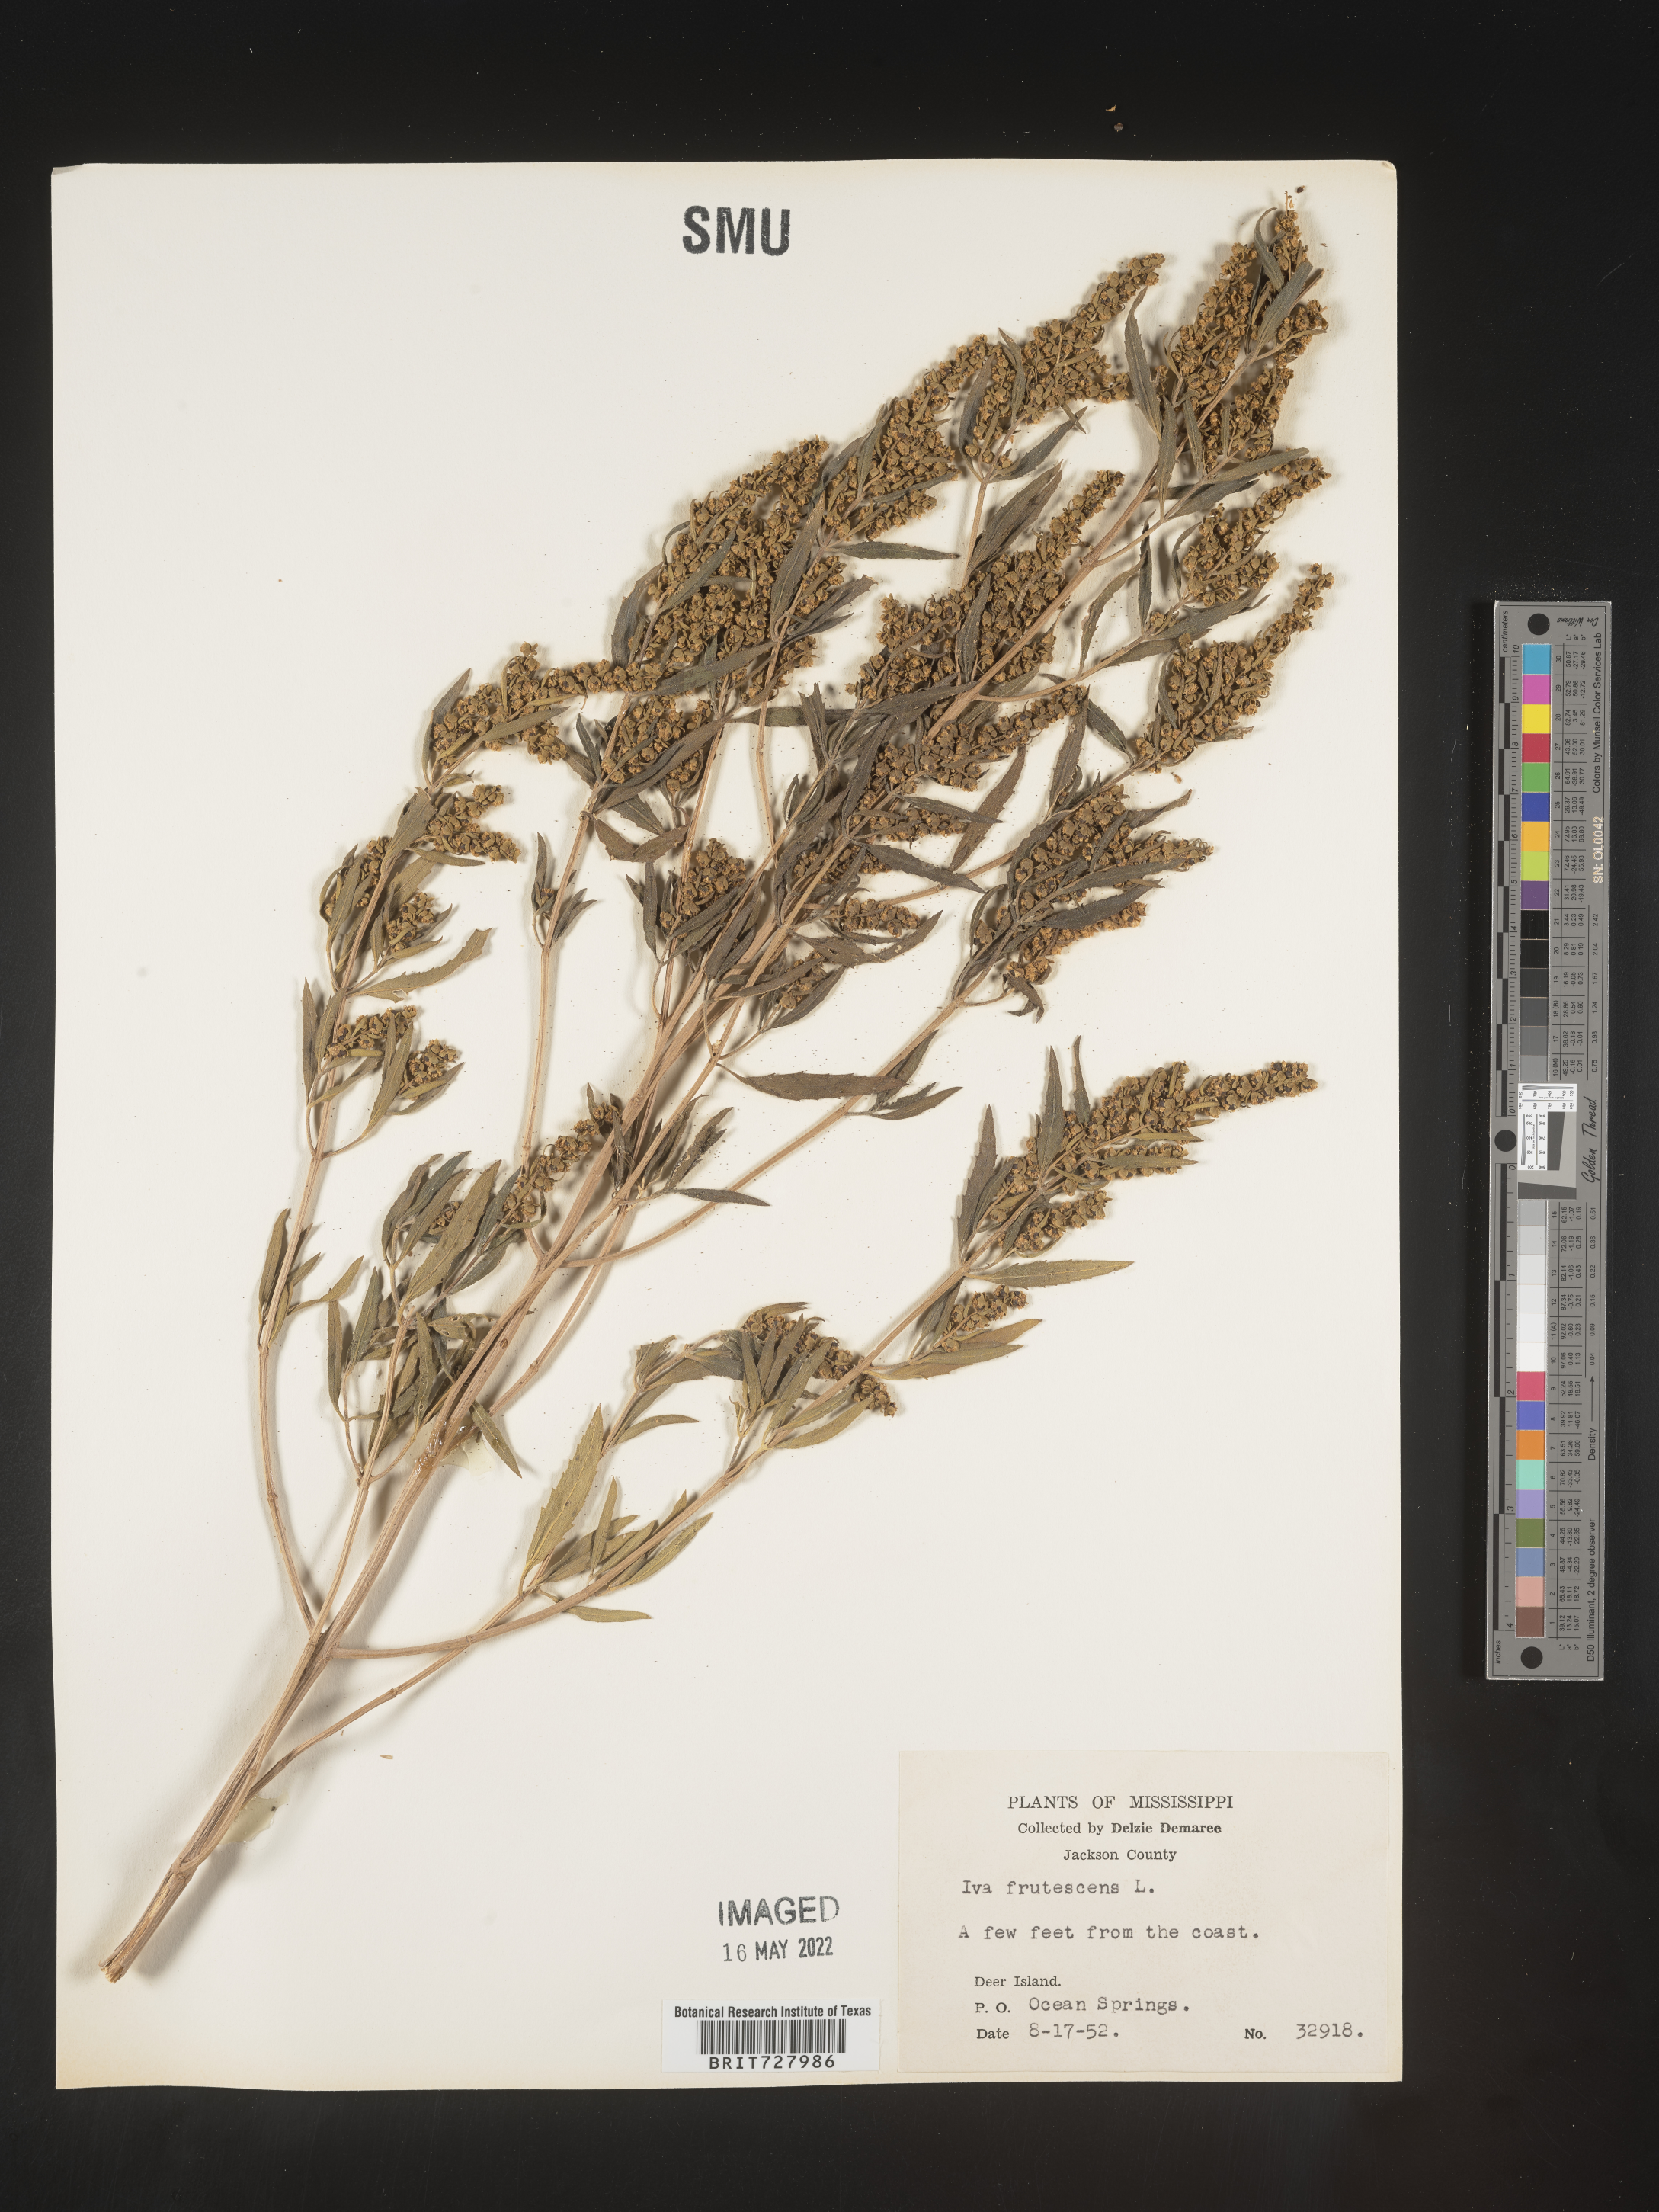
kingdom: Plantae
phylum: Tracheophyta
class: Magnoliopsida
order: Asterales
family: Asteraceae
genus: Iva
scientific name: Iva frutescens
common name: Big-leaved marsh-elder
